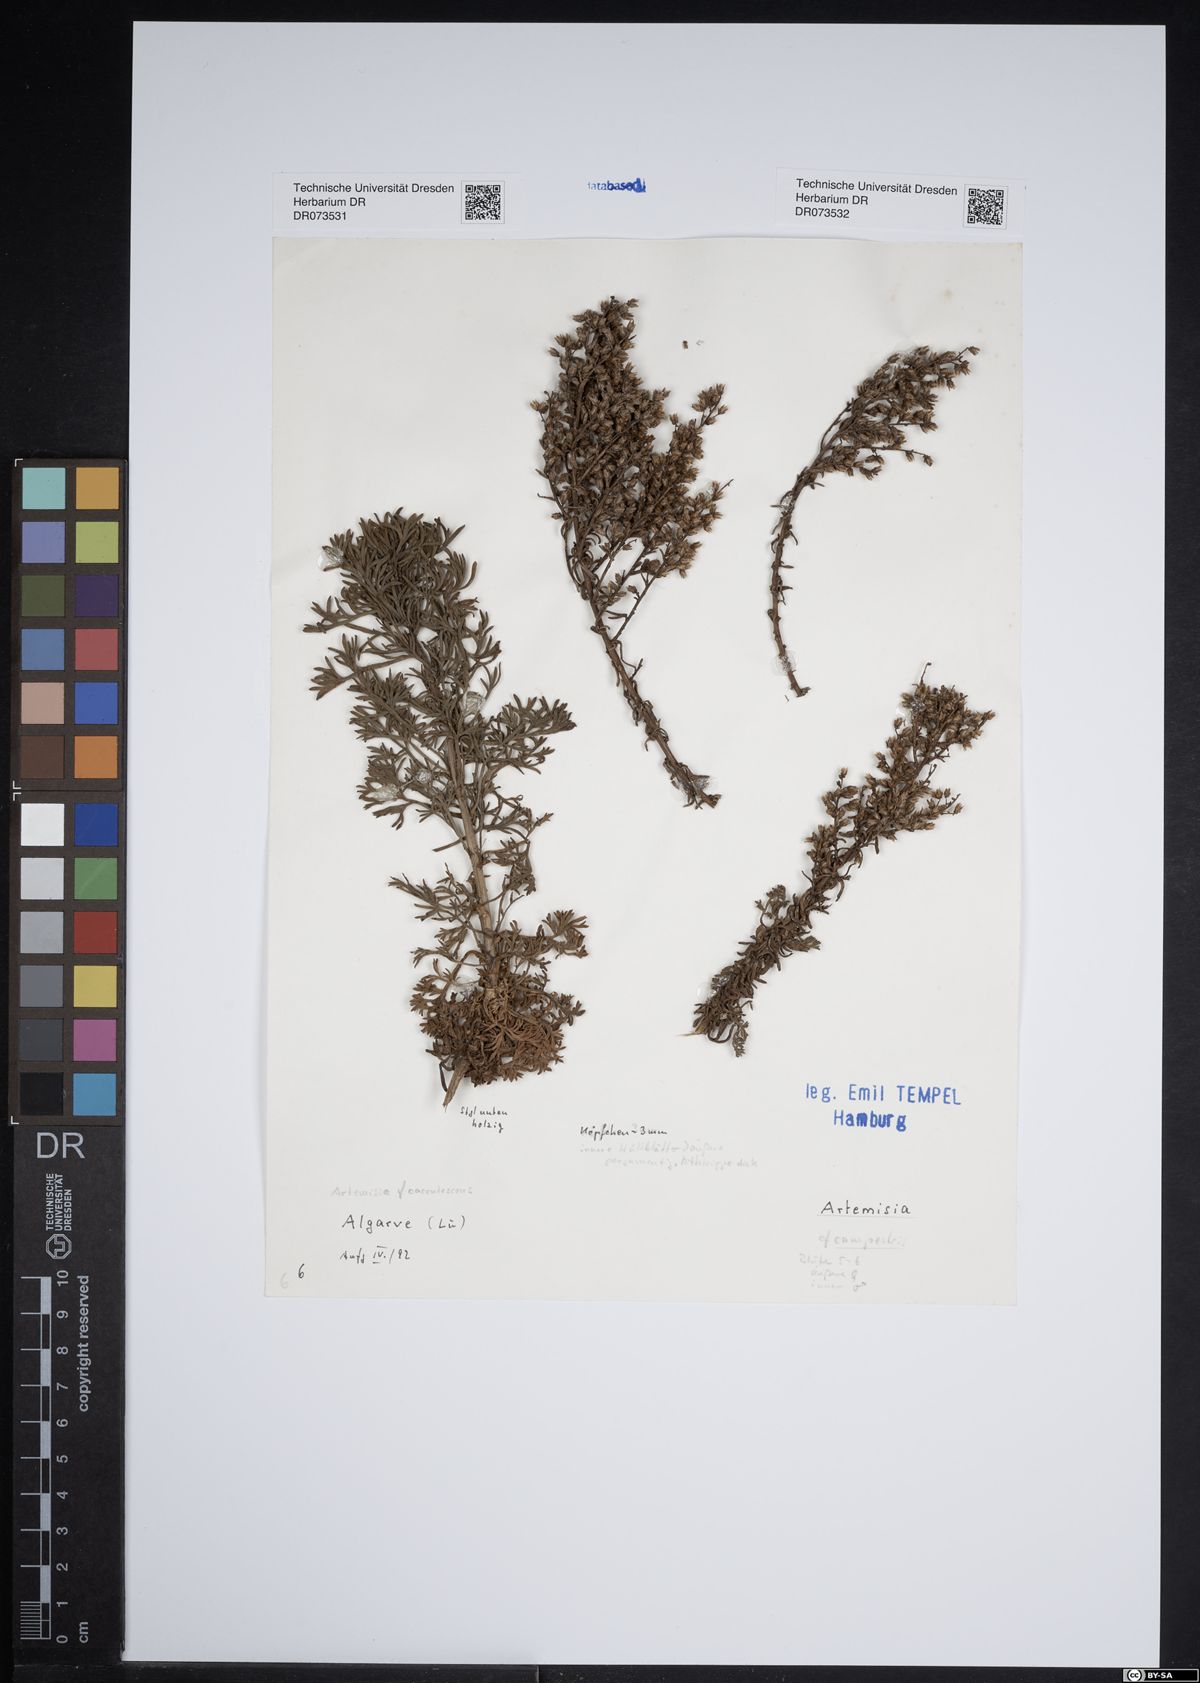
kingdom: Plantae
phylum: Tracheophyta
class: Magnoliopsida
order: Asterales
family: Asteraceae
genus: Artemisia
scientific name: Artemisia caerulescens
